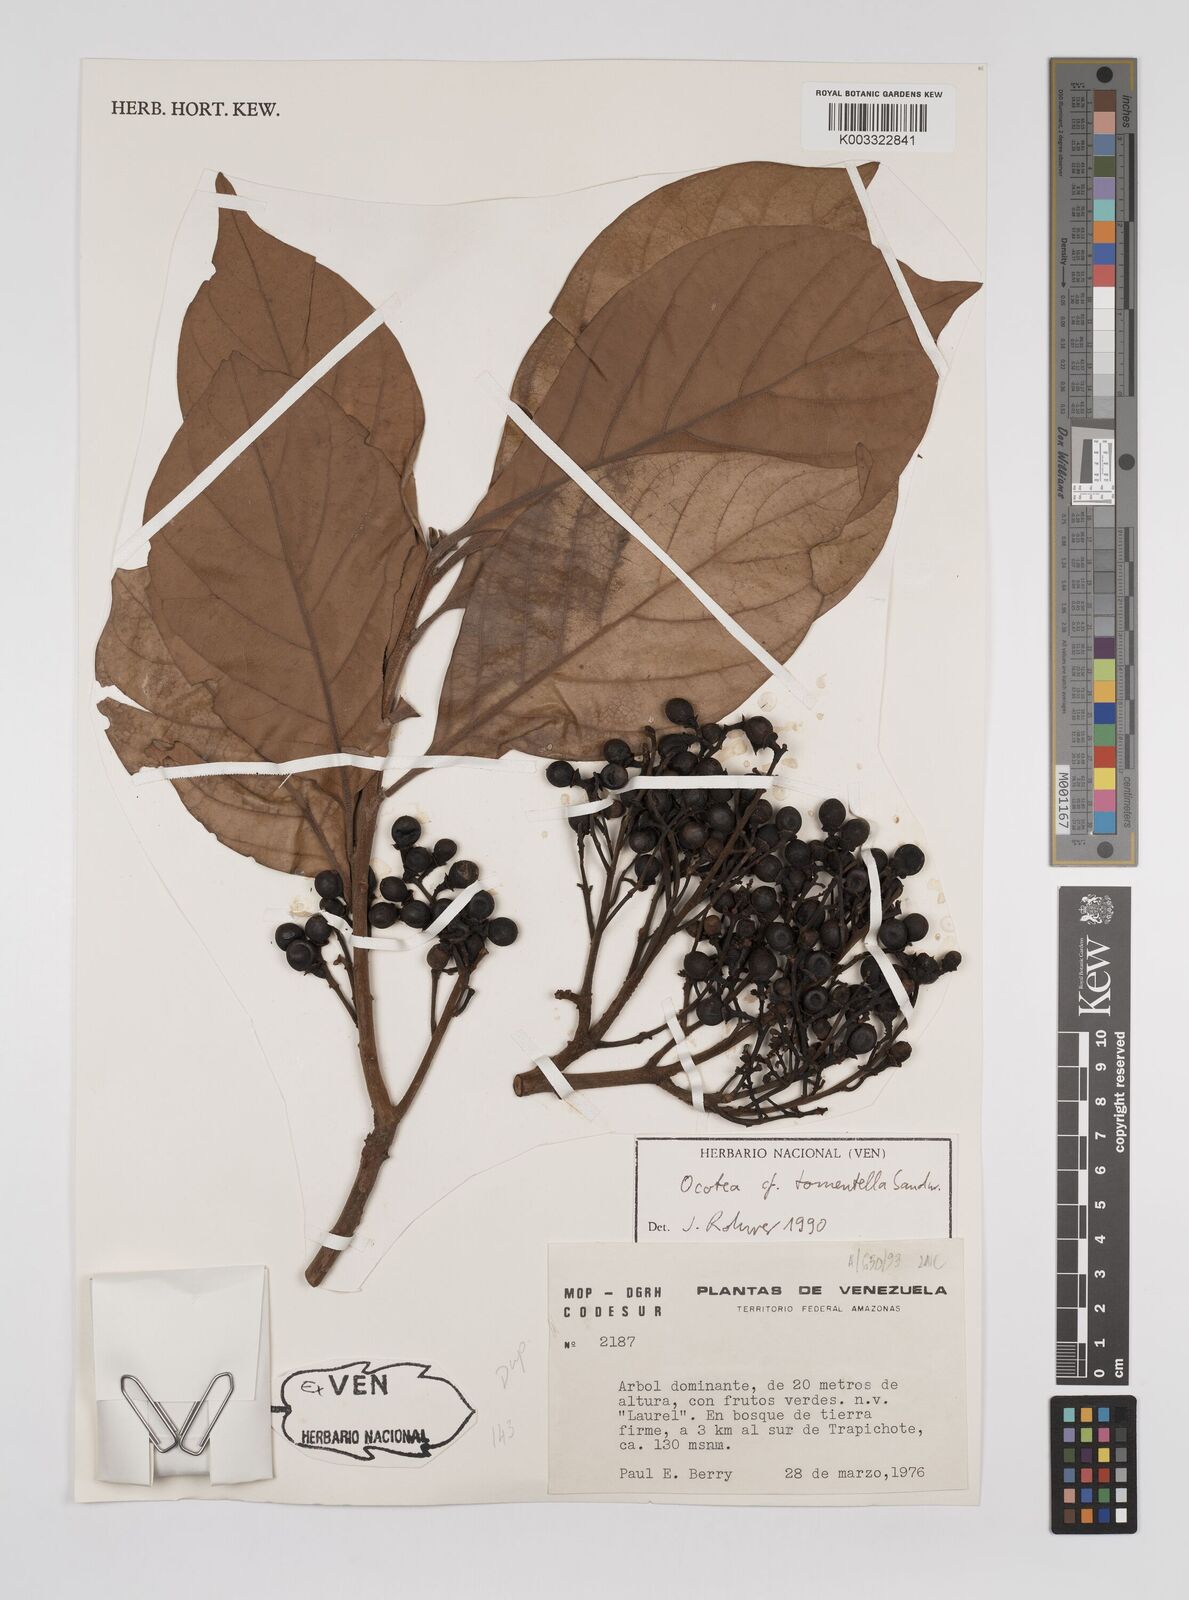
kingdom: Plantae
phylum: Tracheophyta
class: Magnoliopsida
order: Laurales
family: Lauraceae
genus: Ocotea
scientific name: Ocotea tomentosa
